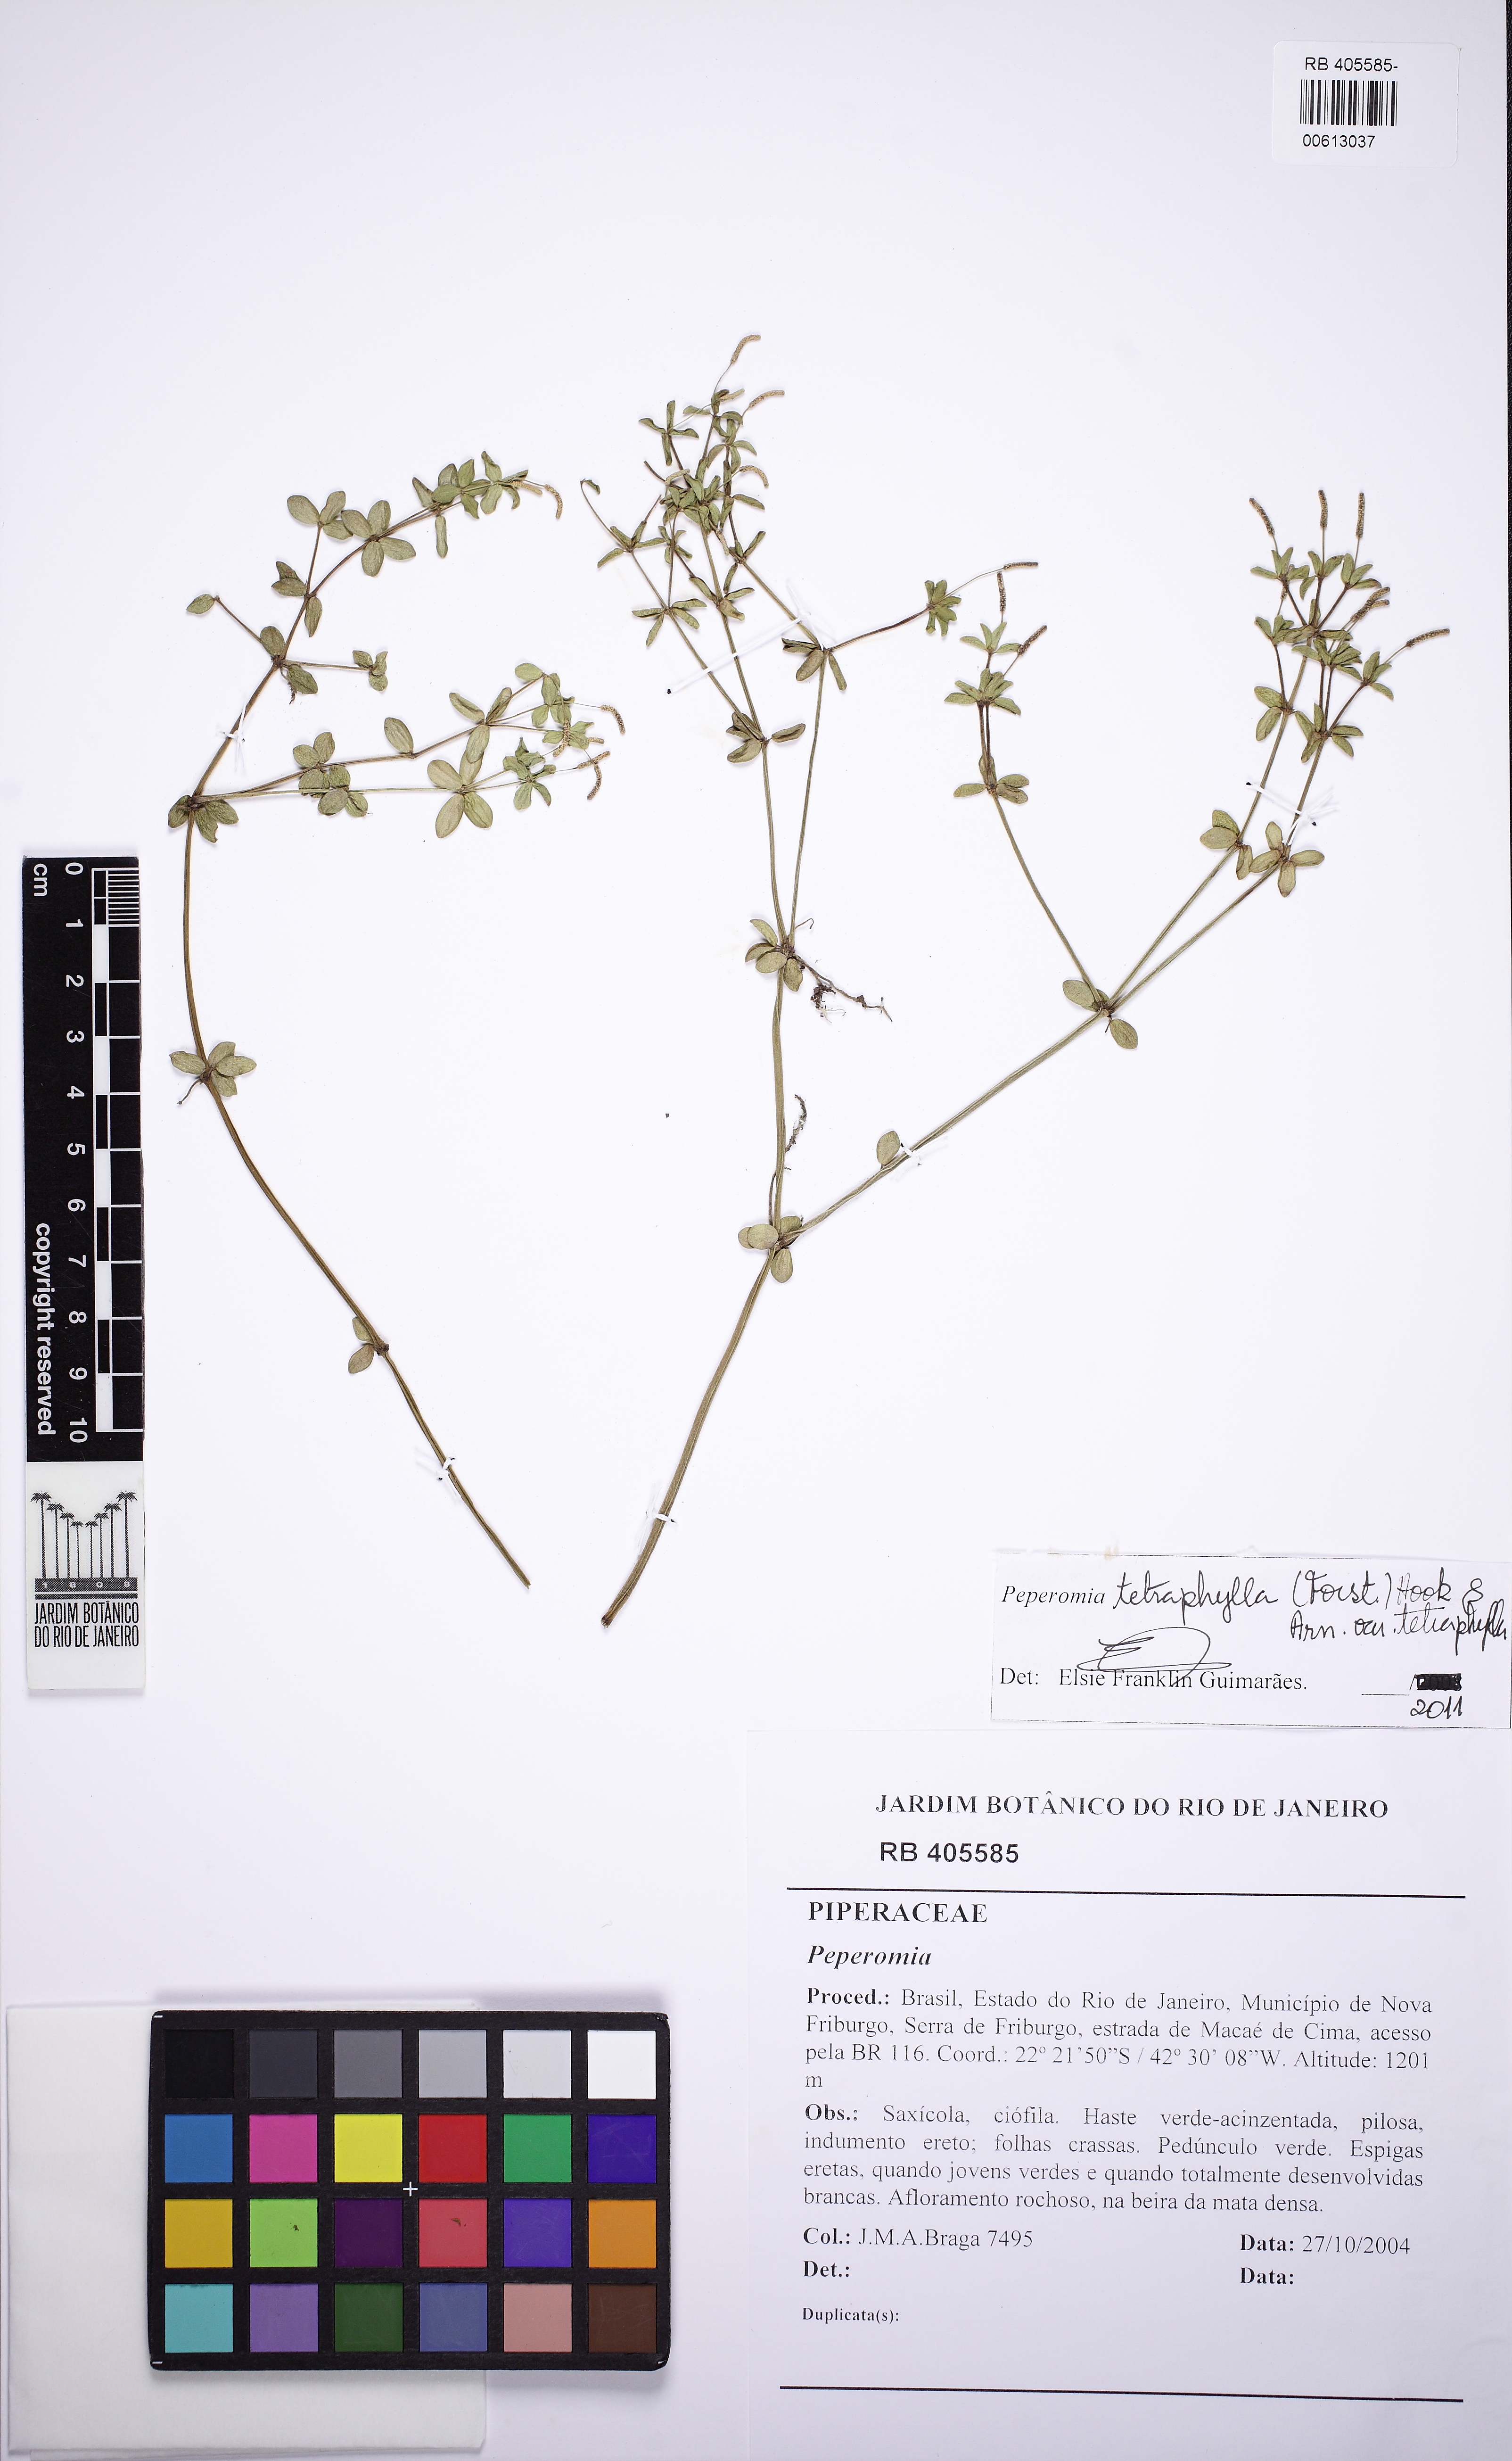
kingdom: Plantae
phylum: Tracheophyta
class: Magnoliopsida
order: Piperales
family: Piperaceae
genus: Peperomia
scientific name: Peperomia tetraphylla
